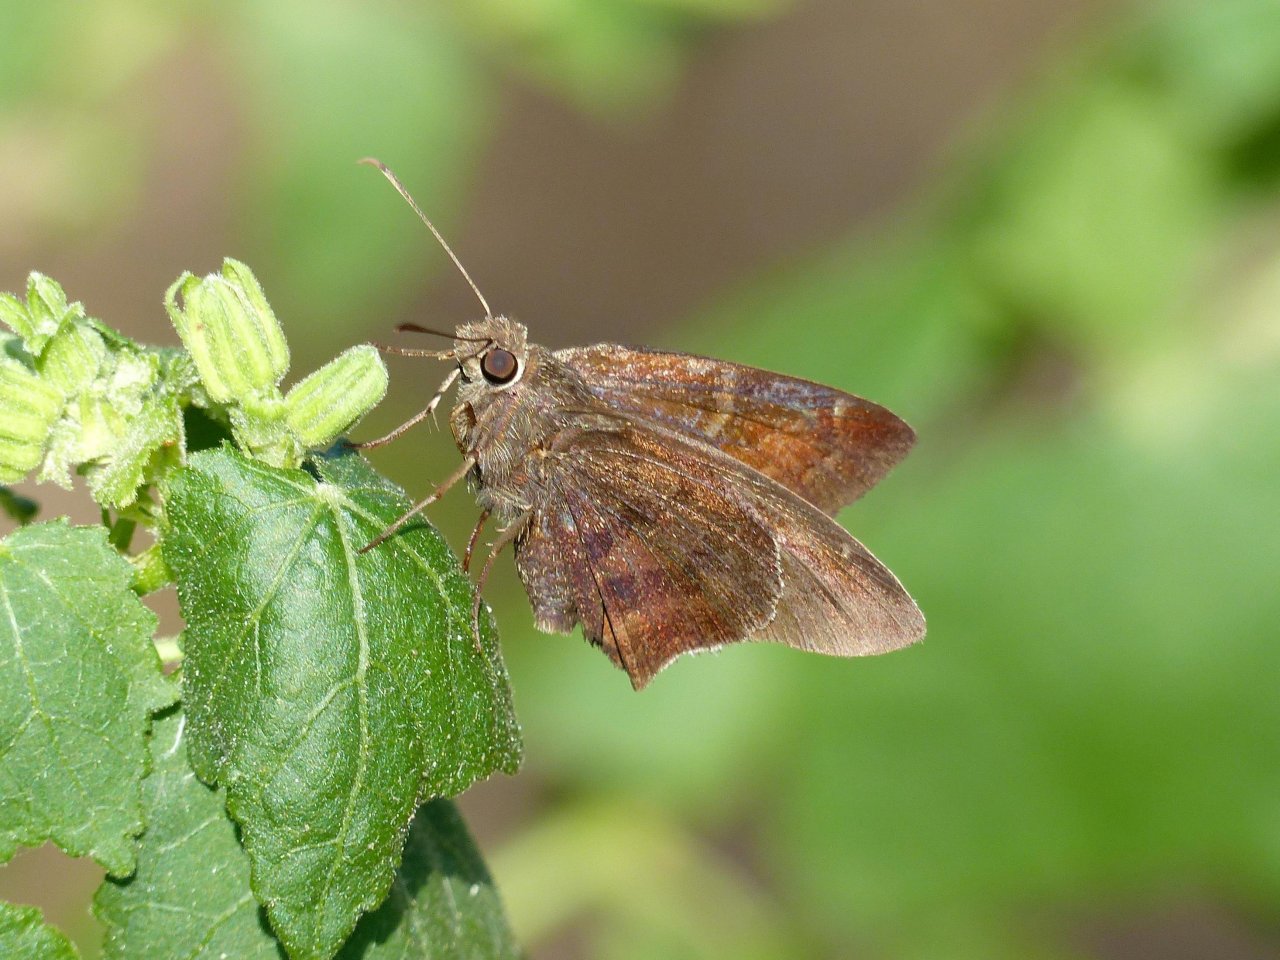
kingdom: Animalia
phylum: Arthropoda
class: Insecta
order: Lepidoptera
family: Hesperiidae
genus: Achalarus
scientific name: Achalarus toxeus
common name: Coyote Cloudywing
